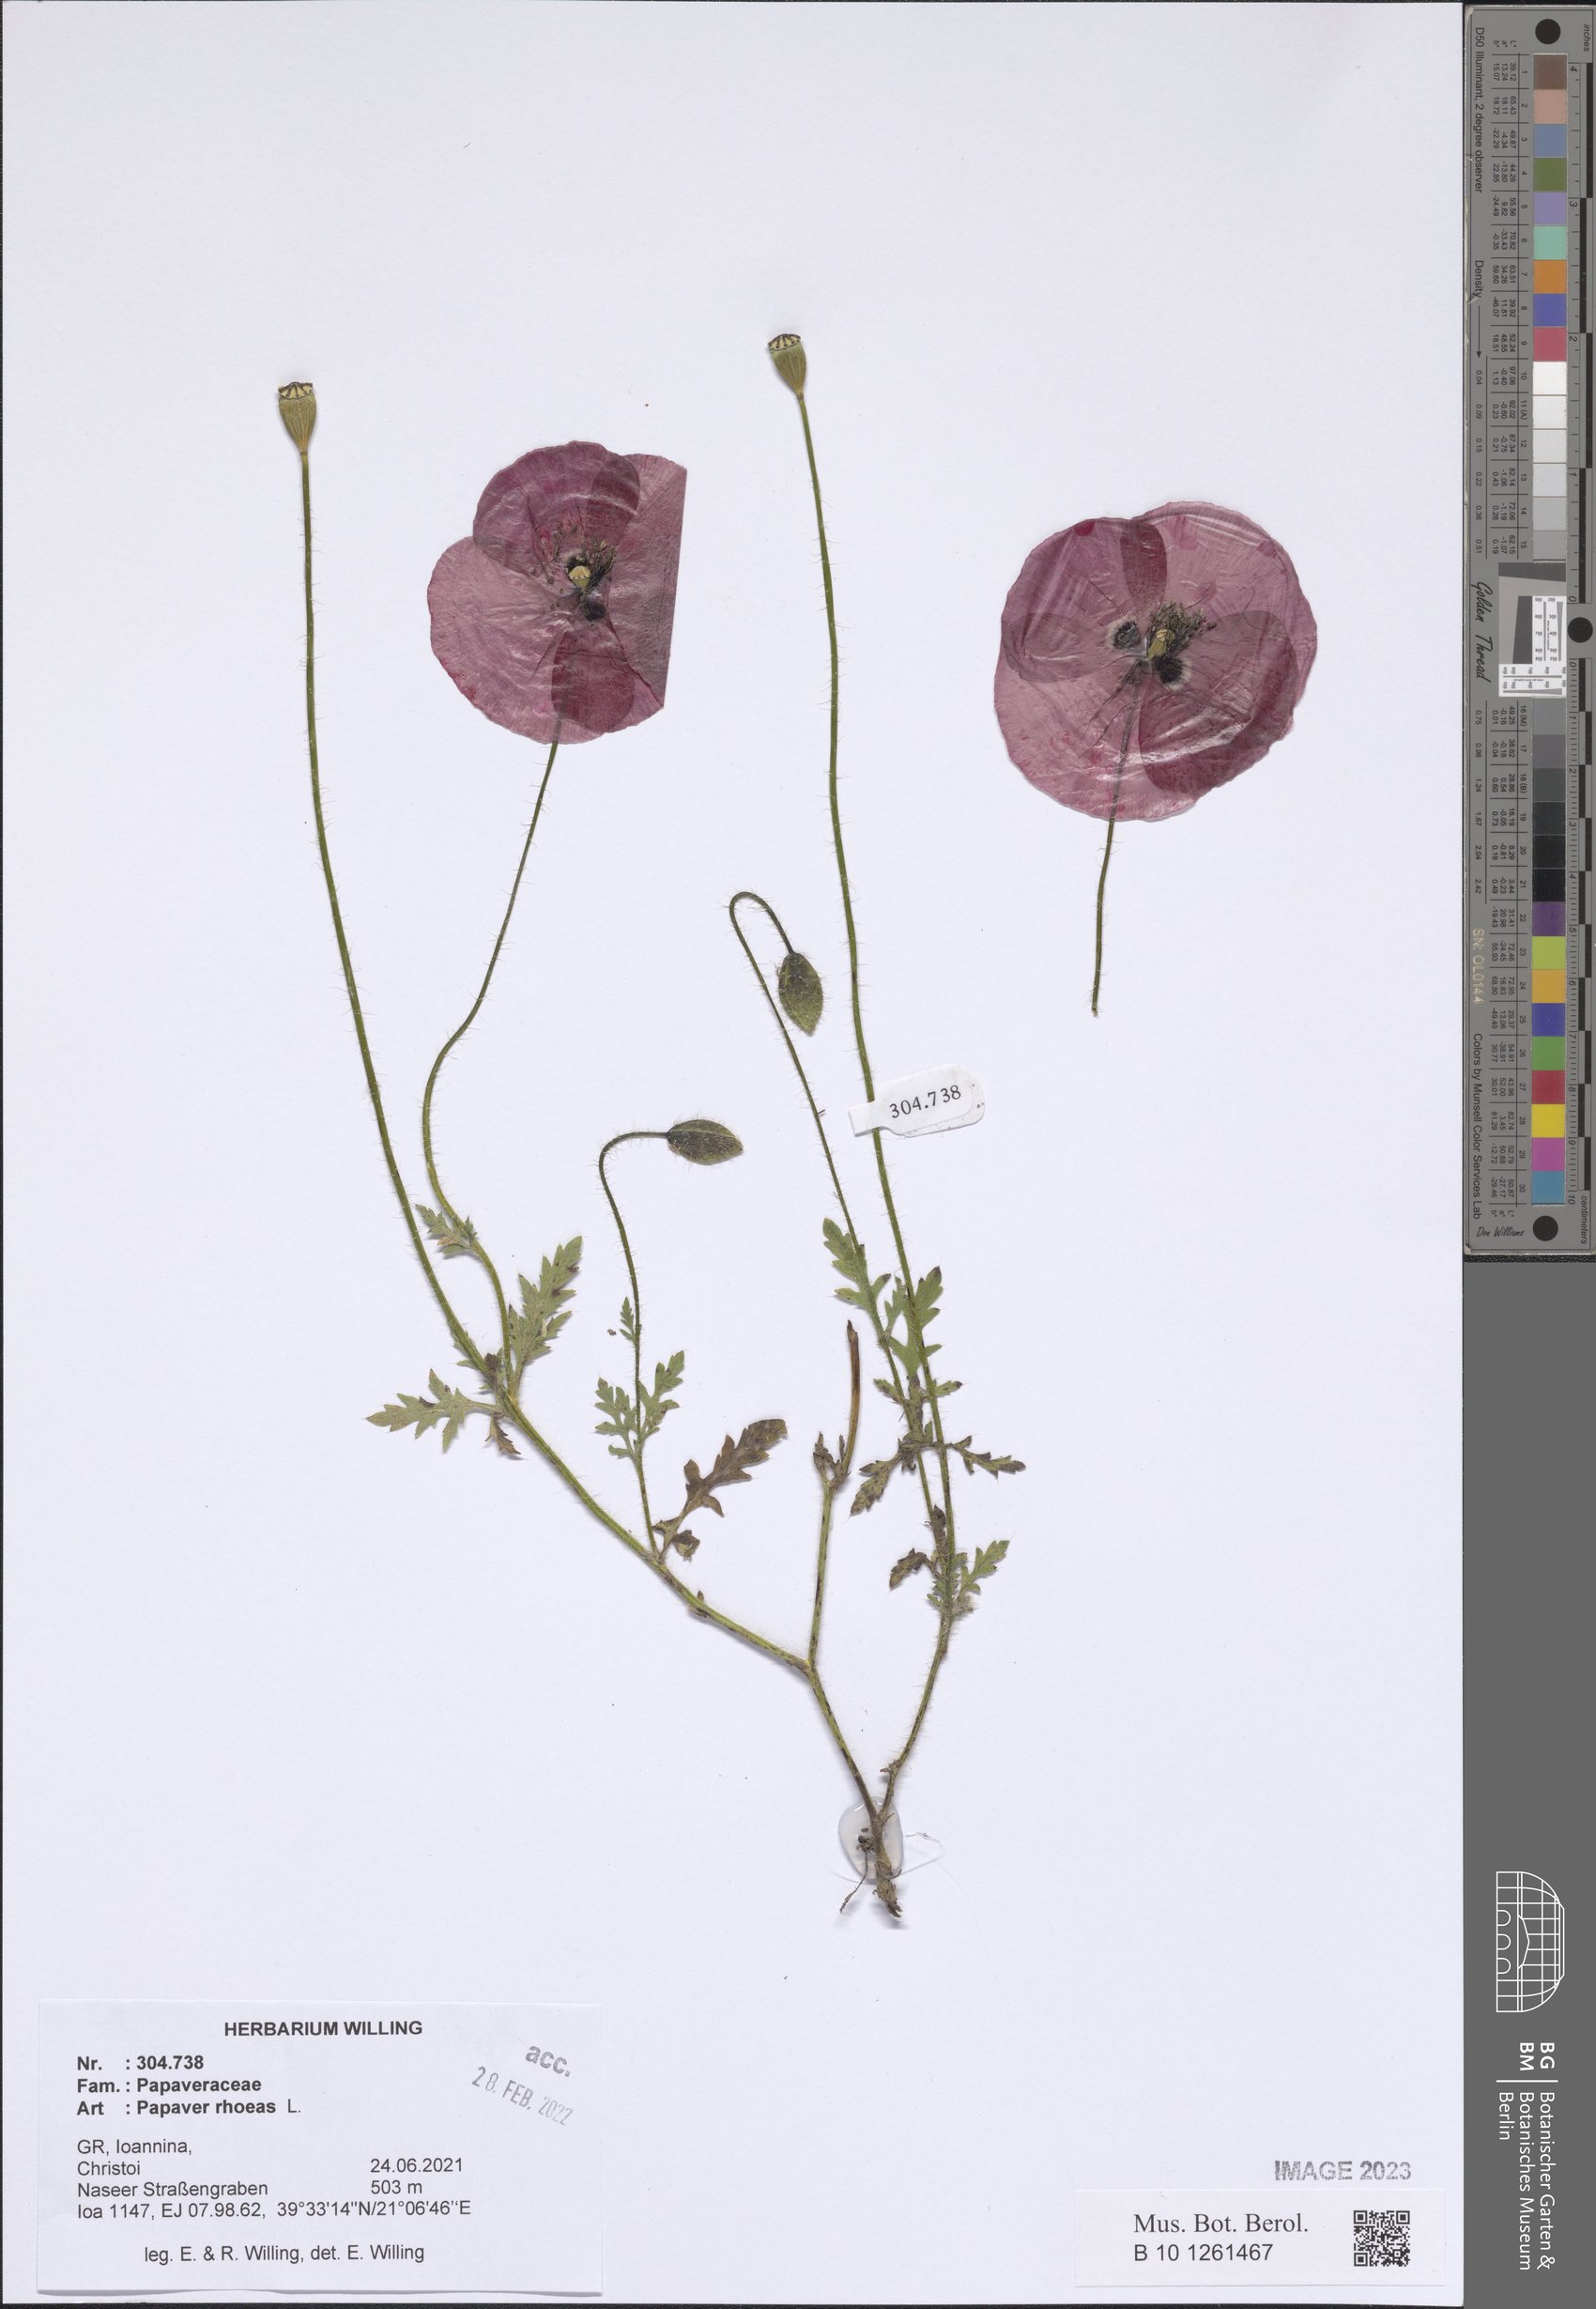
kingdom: Plantae
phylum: Tracheophyta
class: Magnoliopsida
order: Ranunculales
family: Papaveraceae
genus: Papaver
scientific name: Papaver rhoeas
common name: Corn poppy
